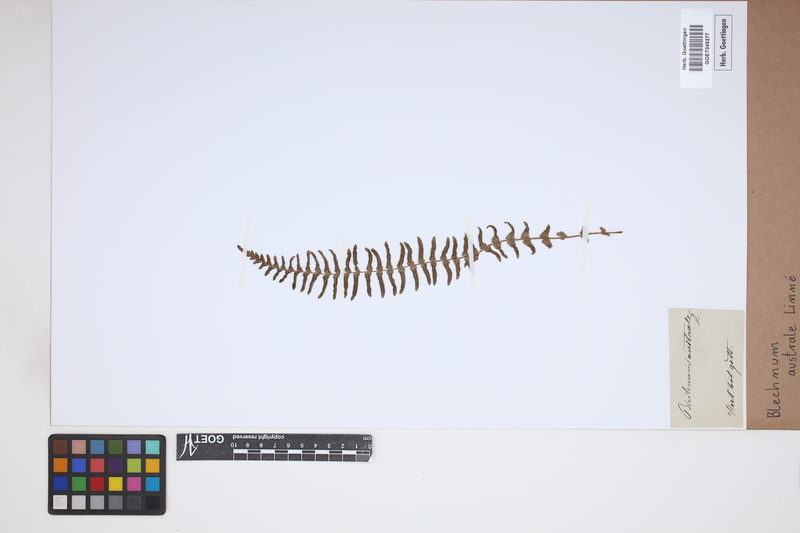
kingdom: Plantae
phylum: Tracheophyta
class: Polypodiopsida
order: Polypodiales
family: Blechnaceae
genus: Blechnum
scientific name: Blechnum australe
